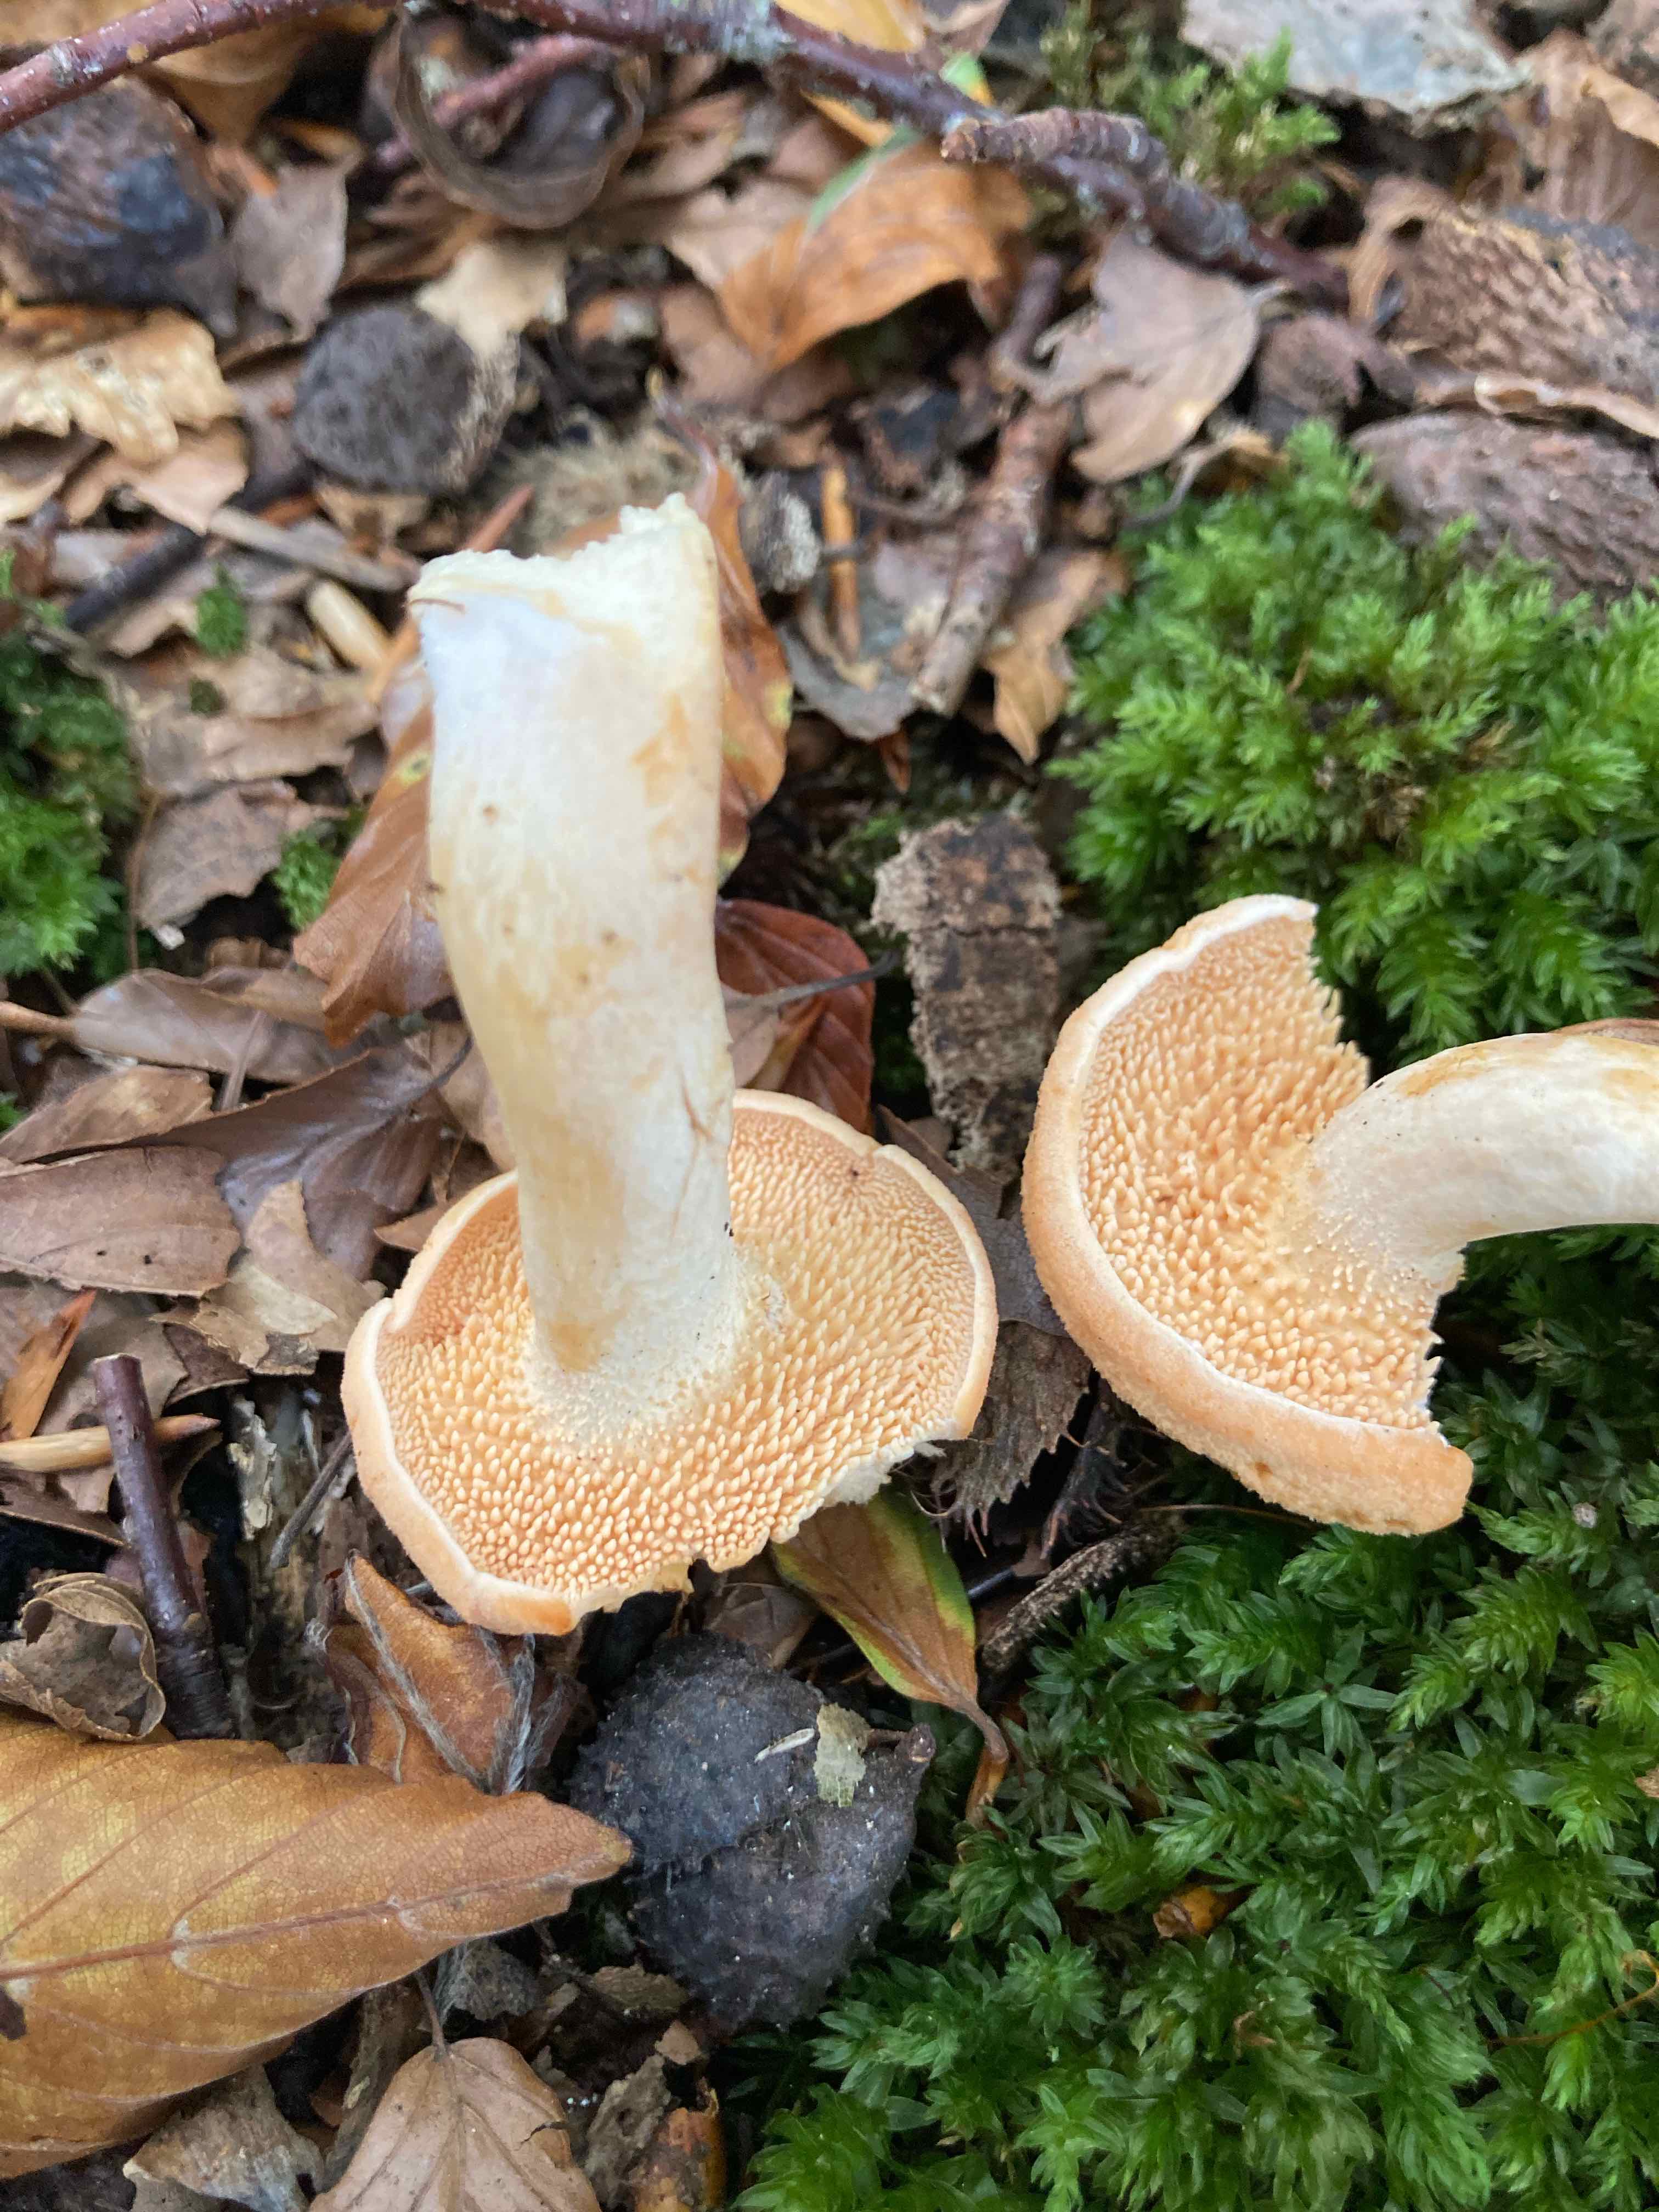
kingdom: Fungi
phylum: Basidiomycota
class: Agaricomycetes
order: Cantharellales
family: Hydnaceae
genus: Hydnum
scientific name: Hydnum
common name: pigsvamp
